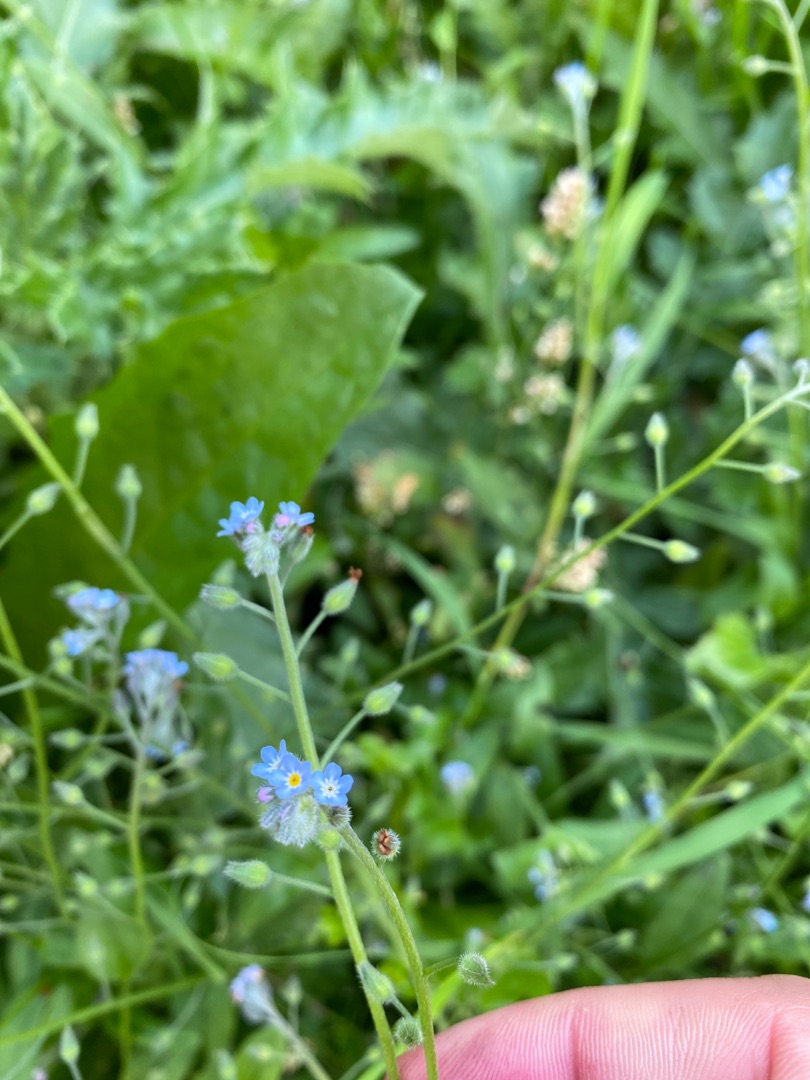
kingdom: Plantae
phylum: Tracheophyta
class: Magnoliopsida
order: Boraginales
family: Boraginaceae
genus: Myosotis
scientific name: Myosotis arvensis
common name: Mark-forglemmigej
